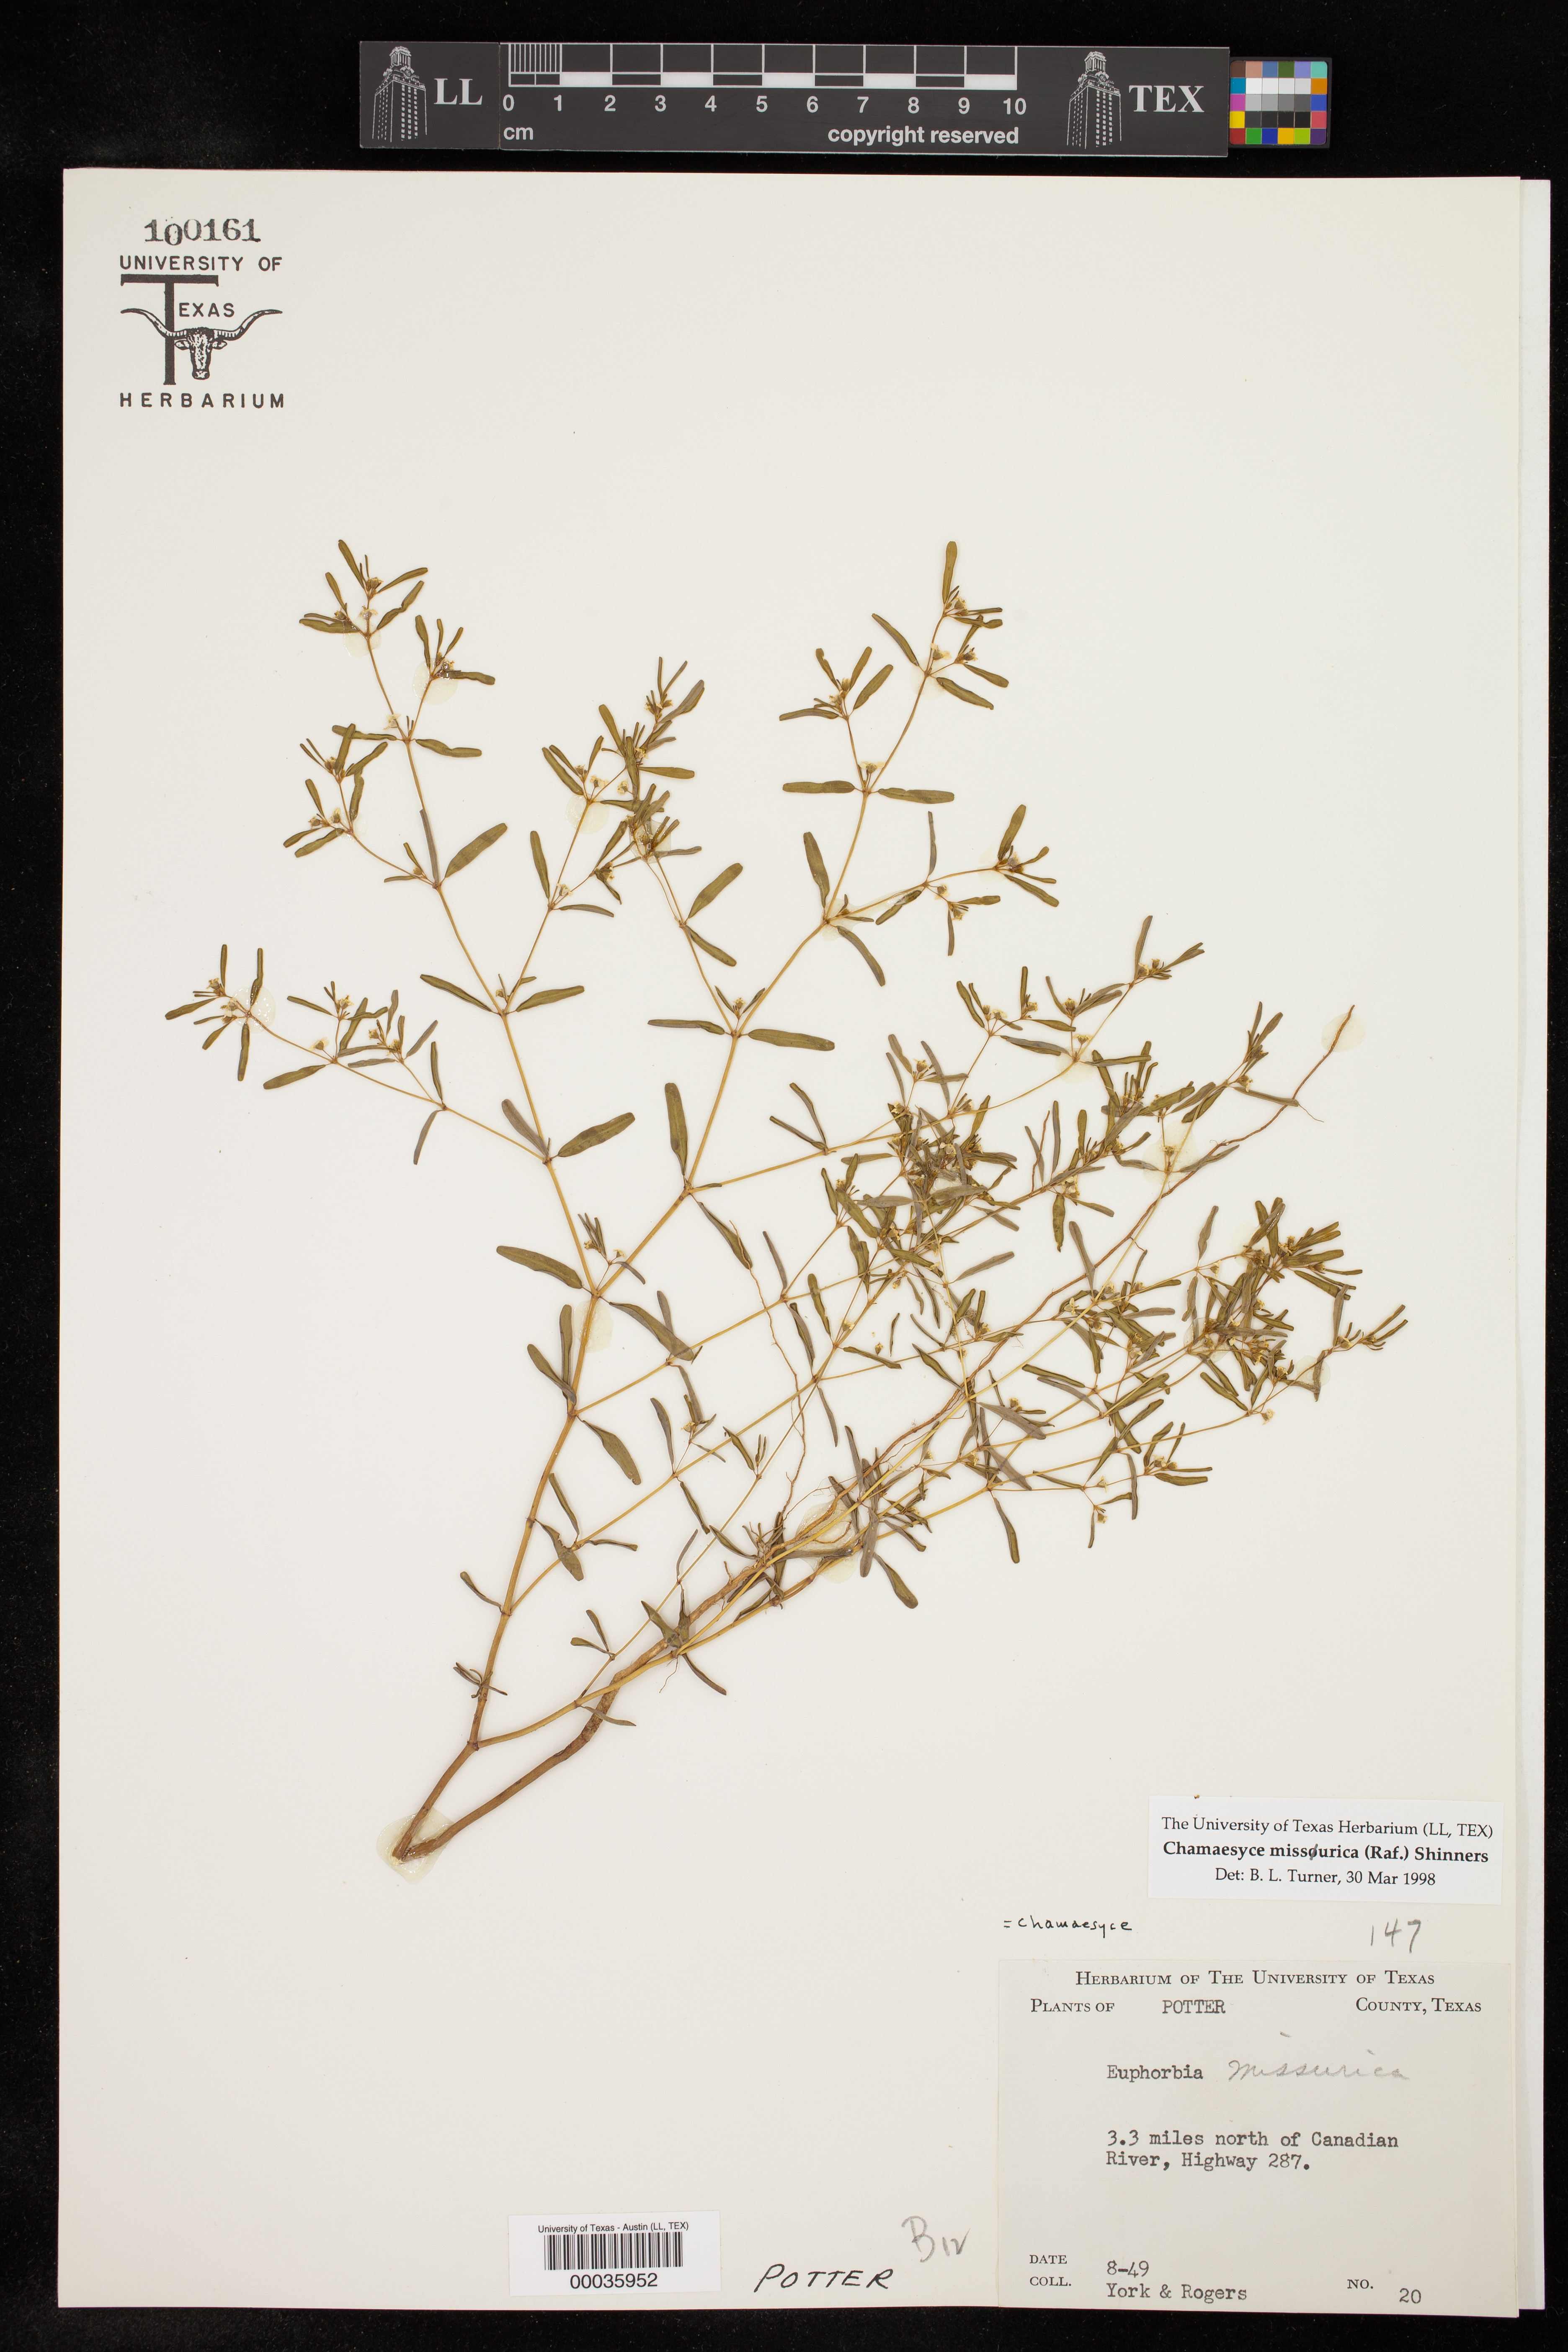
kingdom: Plantae
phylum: Tracheophyta
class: Magnoliopsida
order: Malpighiales
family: Euphorbiaceae
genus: Euphorbia
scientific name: Euphorbia missurica
